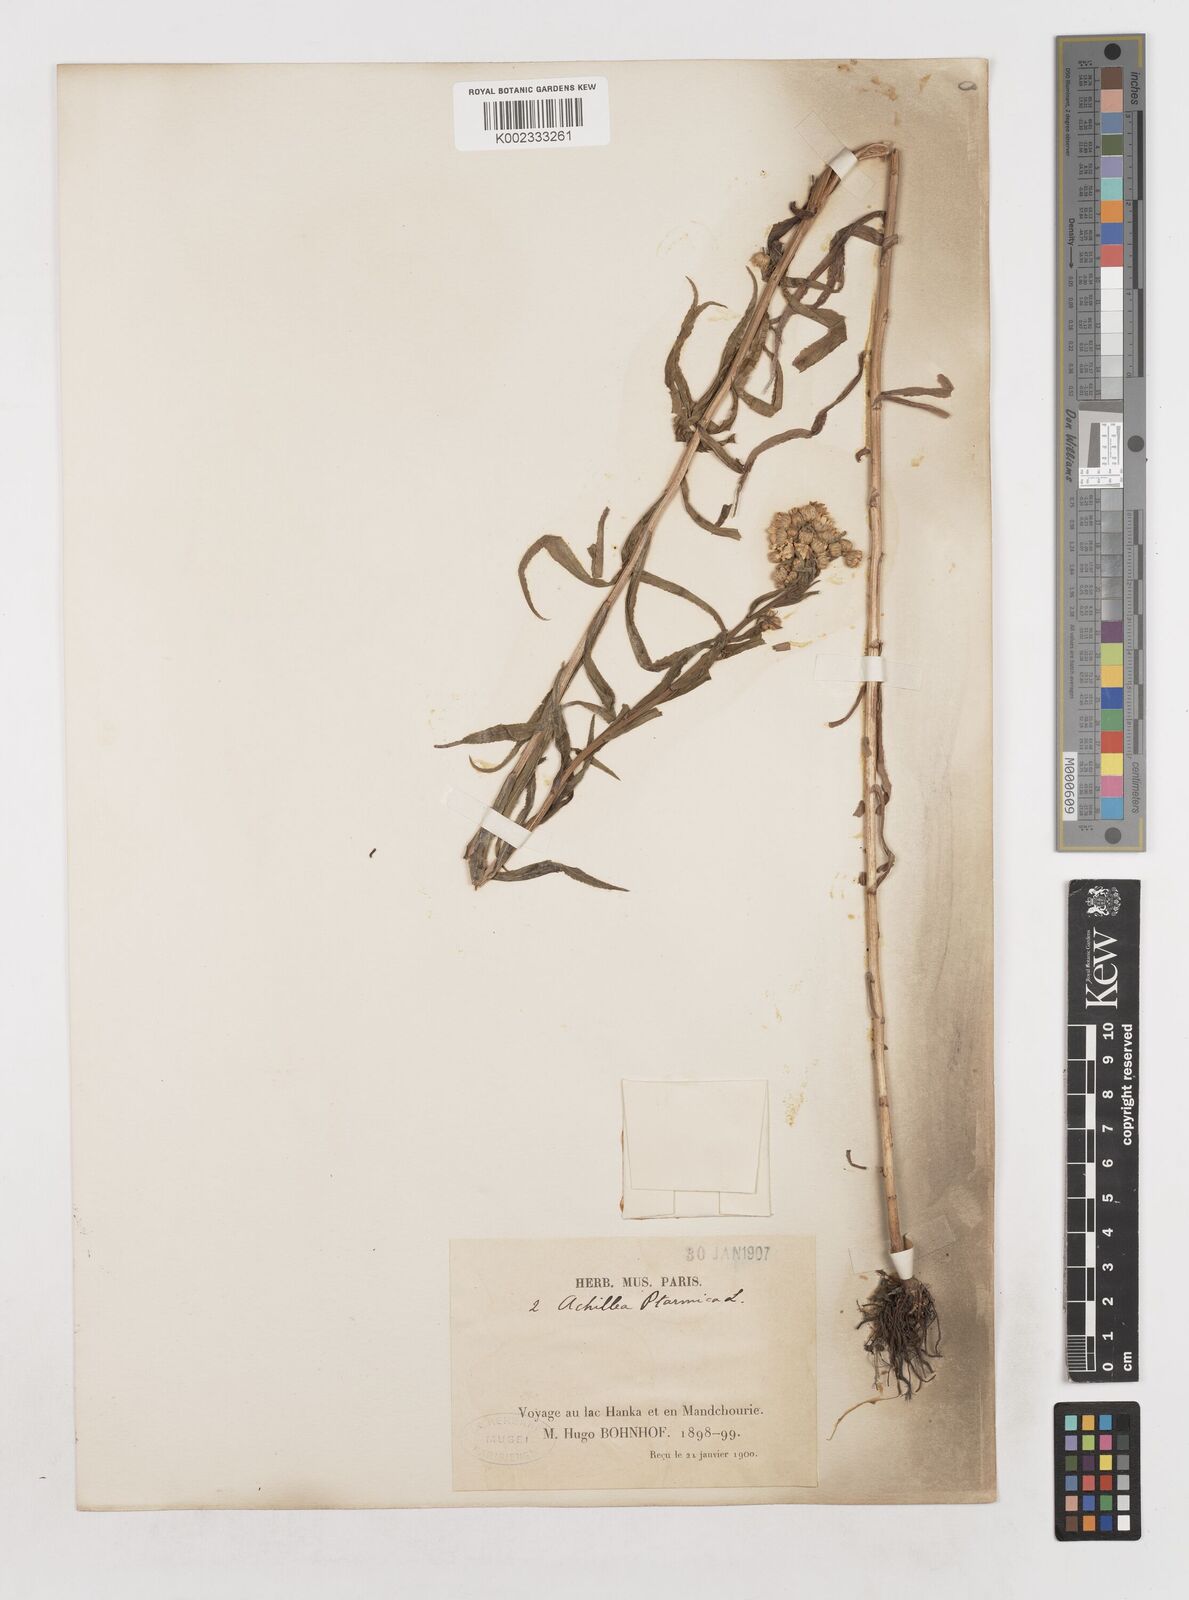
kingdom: Plantae
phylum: Tracheophyta
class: Magnoliopsida
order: Asterales
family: Asteraceae
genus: Achillea
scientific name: Achillea ptarmica
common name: Sneezeweed
